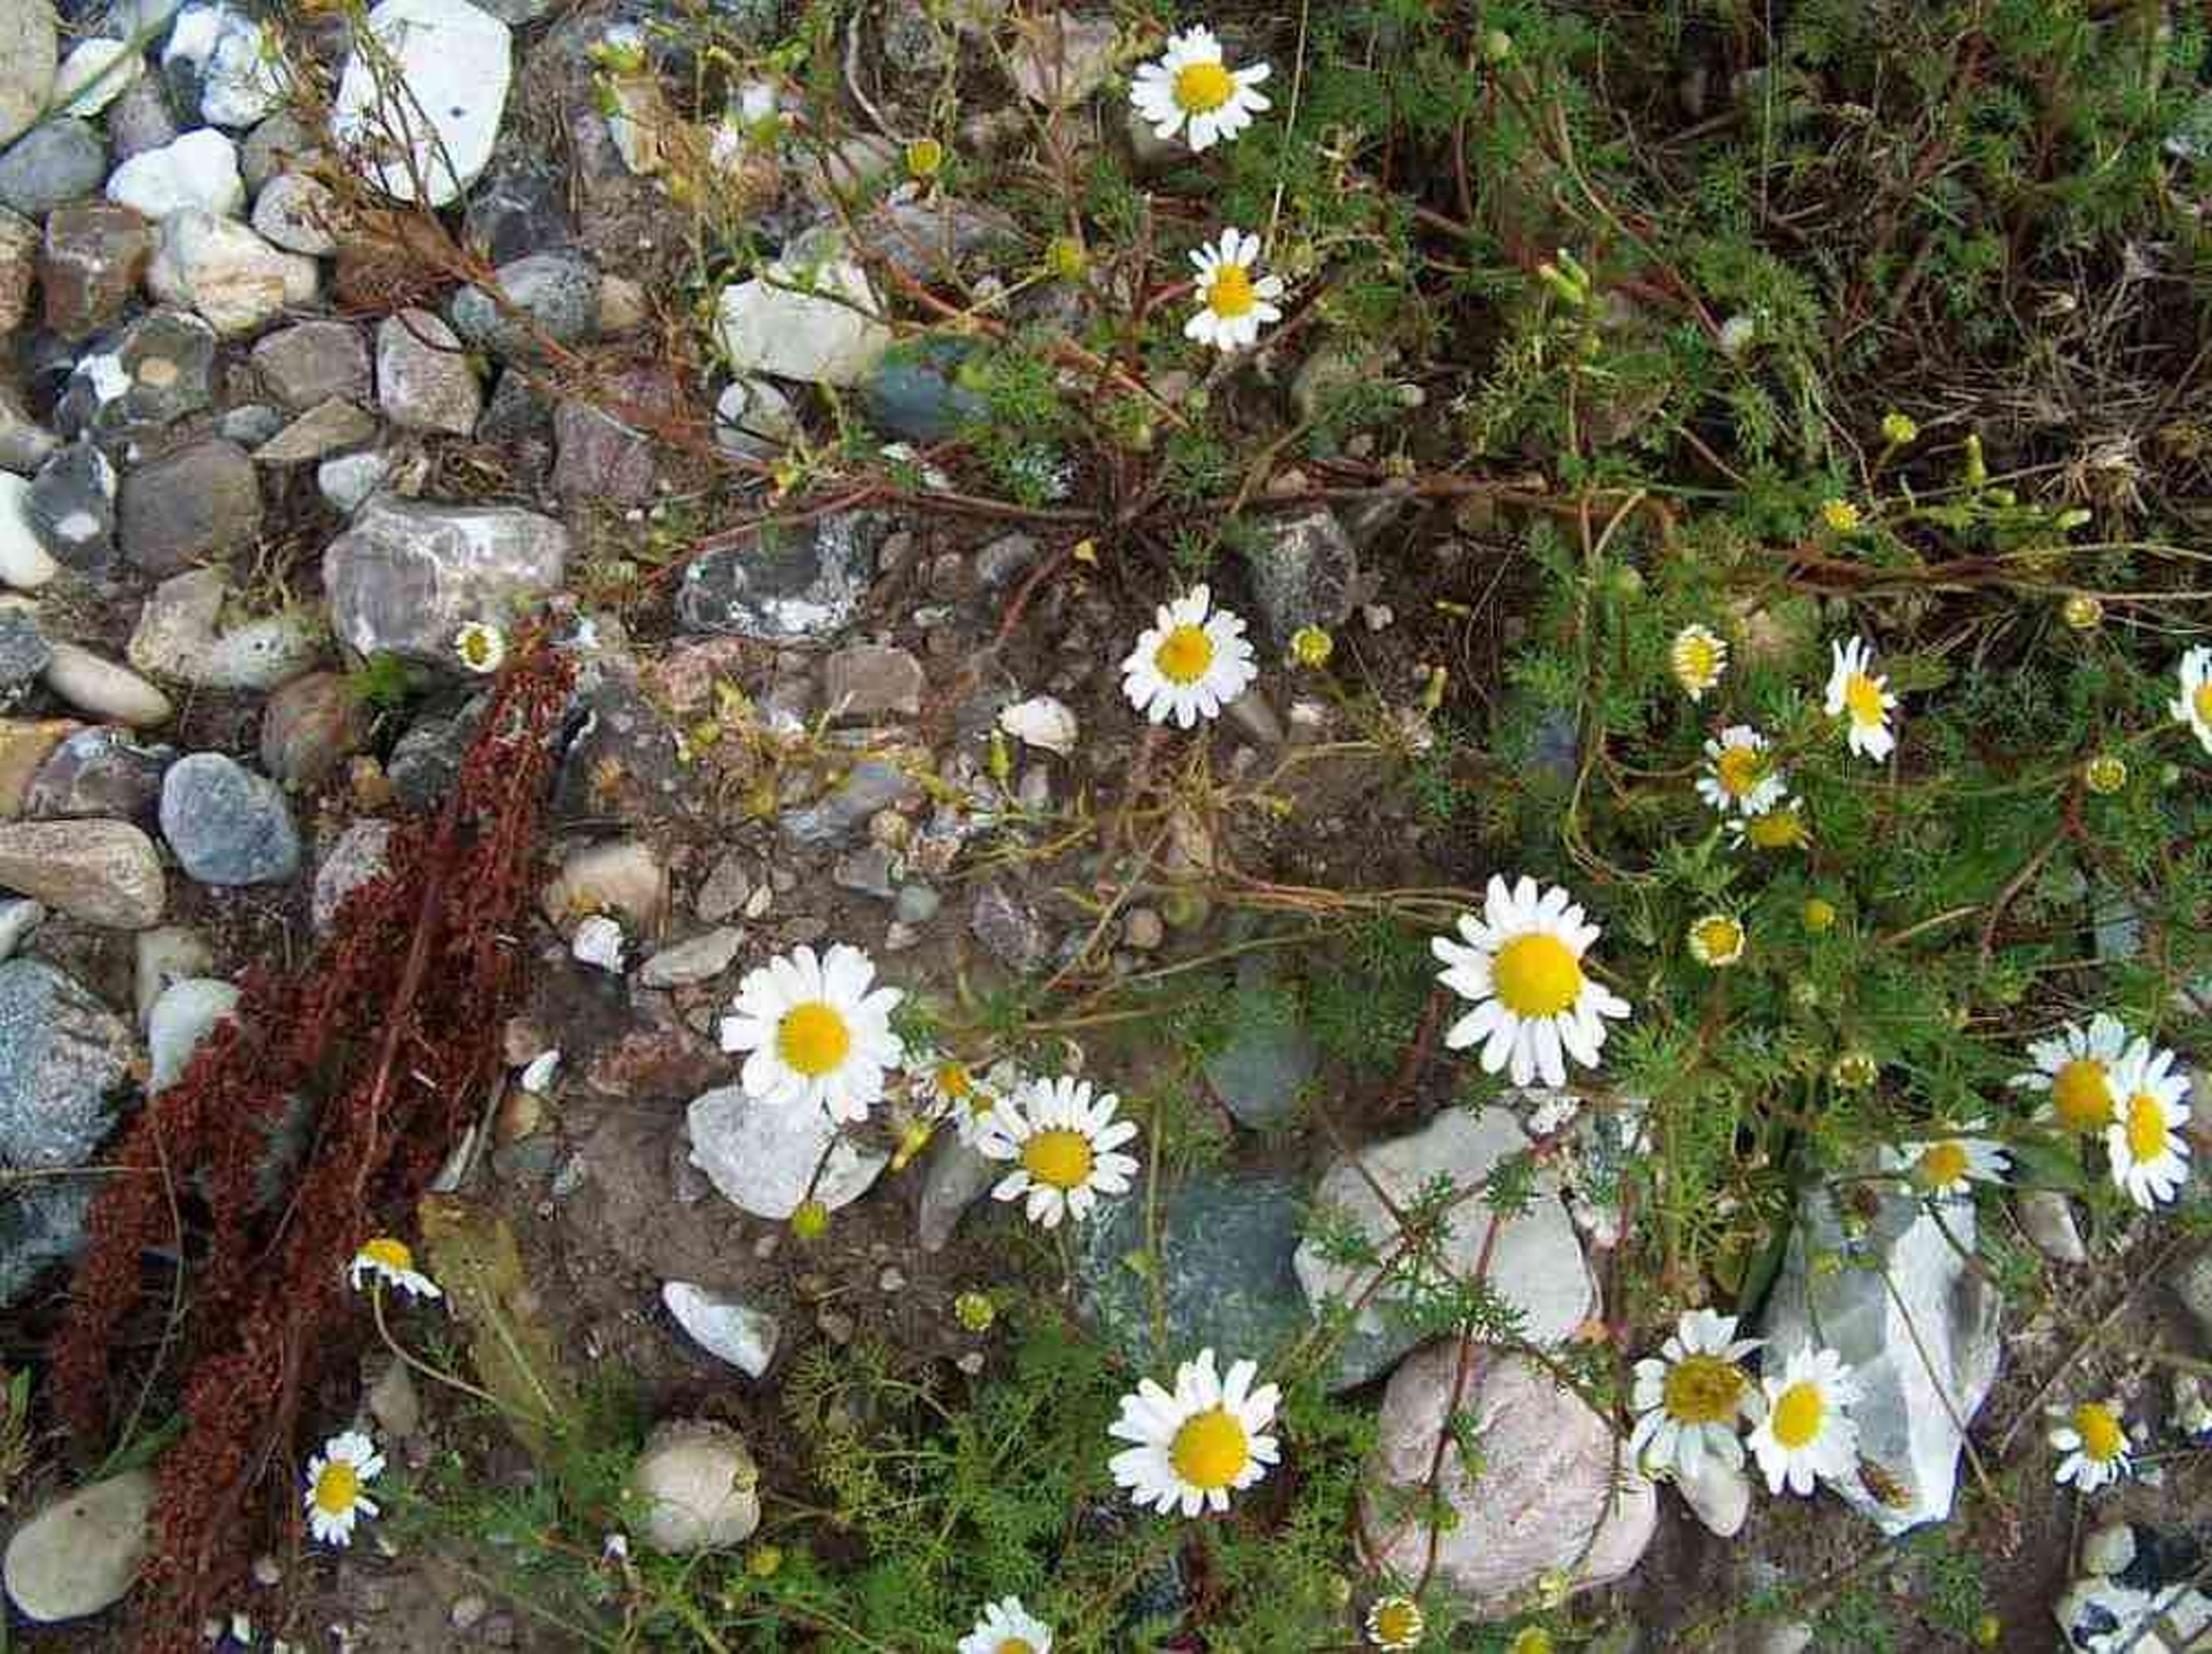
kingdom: Plantae
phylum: Tracheophyta
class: Magnoliopsida
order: Asterales
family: Asteraceae
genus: Tripleurospermum
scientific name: Tripleurospermum maritimum
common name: Strand-kamille
